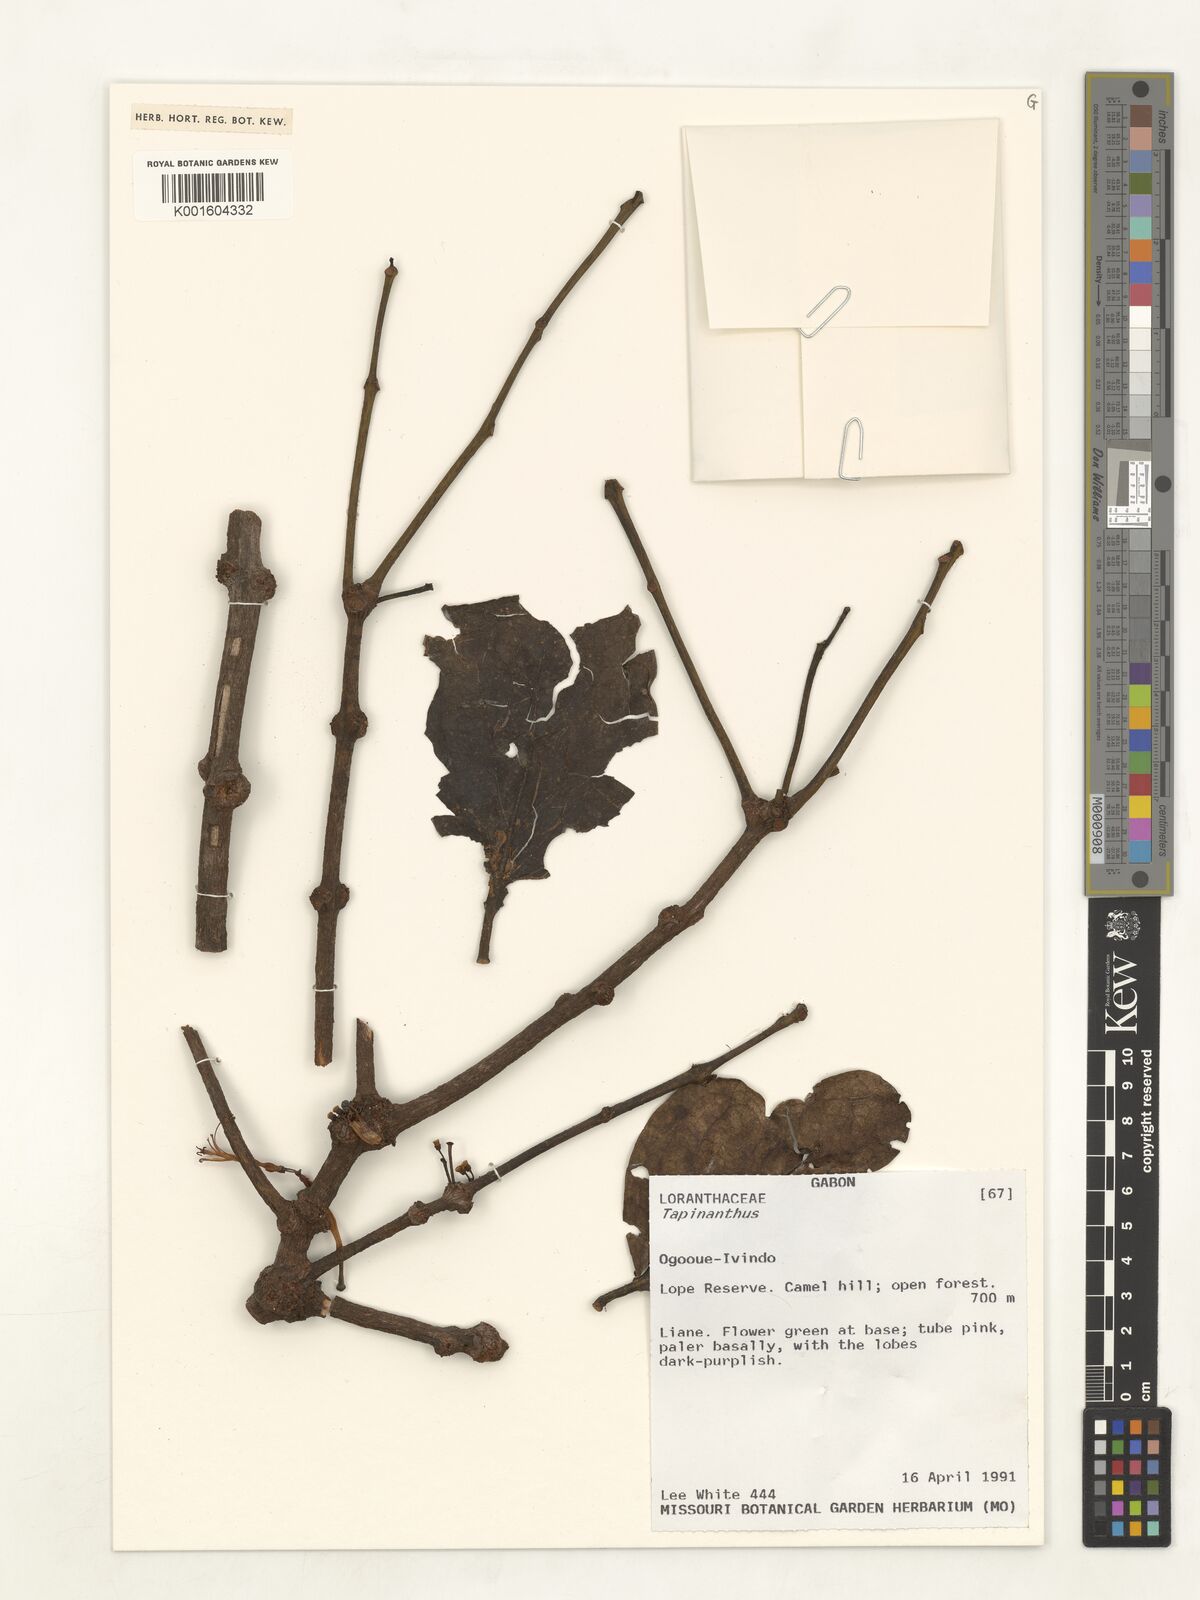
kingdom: Plantae
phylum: Tracheophyta
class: Magnoliopsida
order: Santalales
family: Loranthaceae
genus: Tapinanthus
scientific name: Tapinanthus
